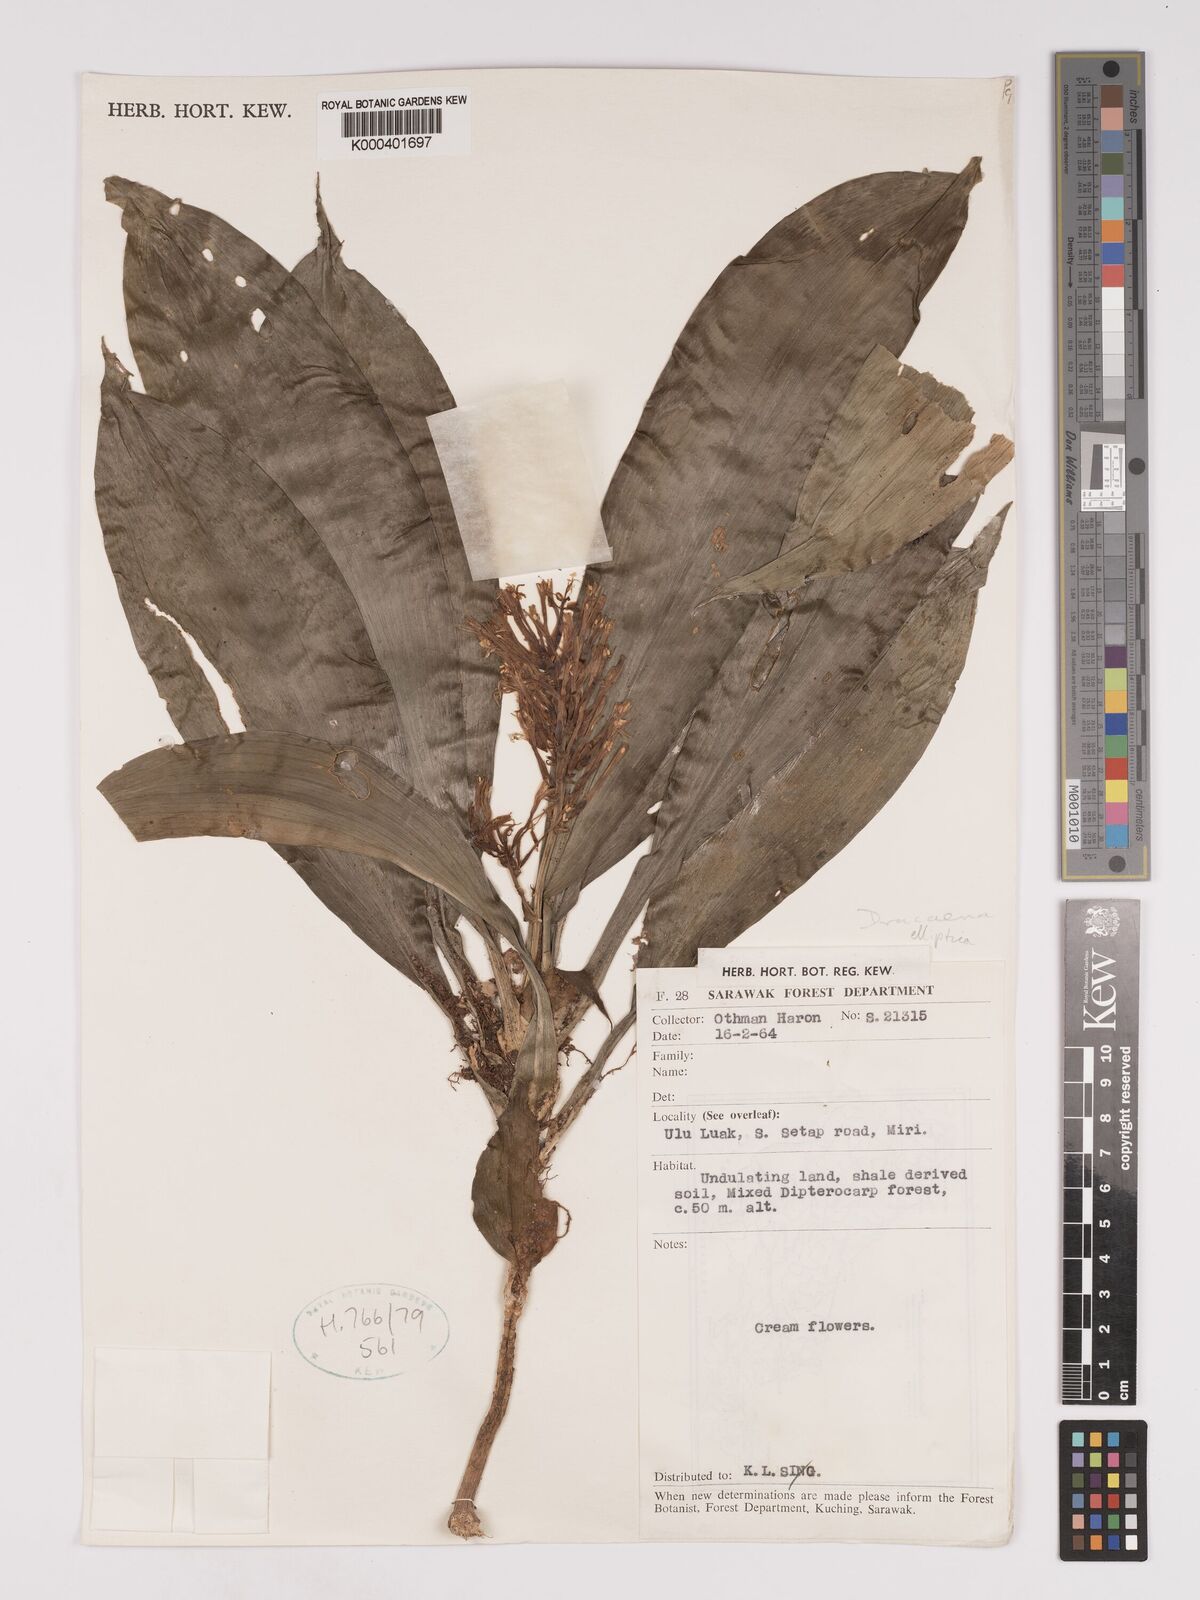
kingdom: Plantae
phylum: Tracheophyta
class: Liliopsida
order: Asparagales
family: Asparagaceae
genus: Dracaena
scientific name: Dracaena elliptica
